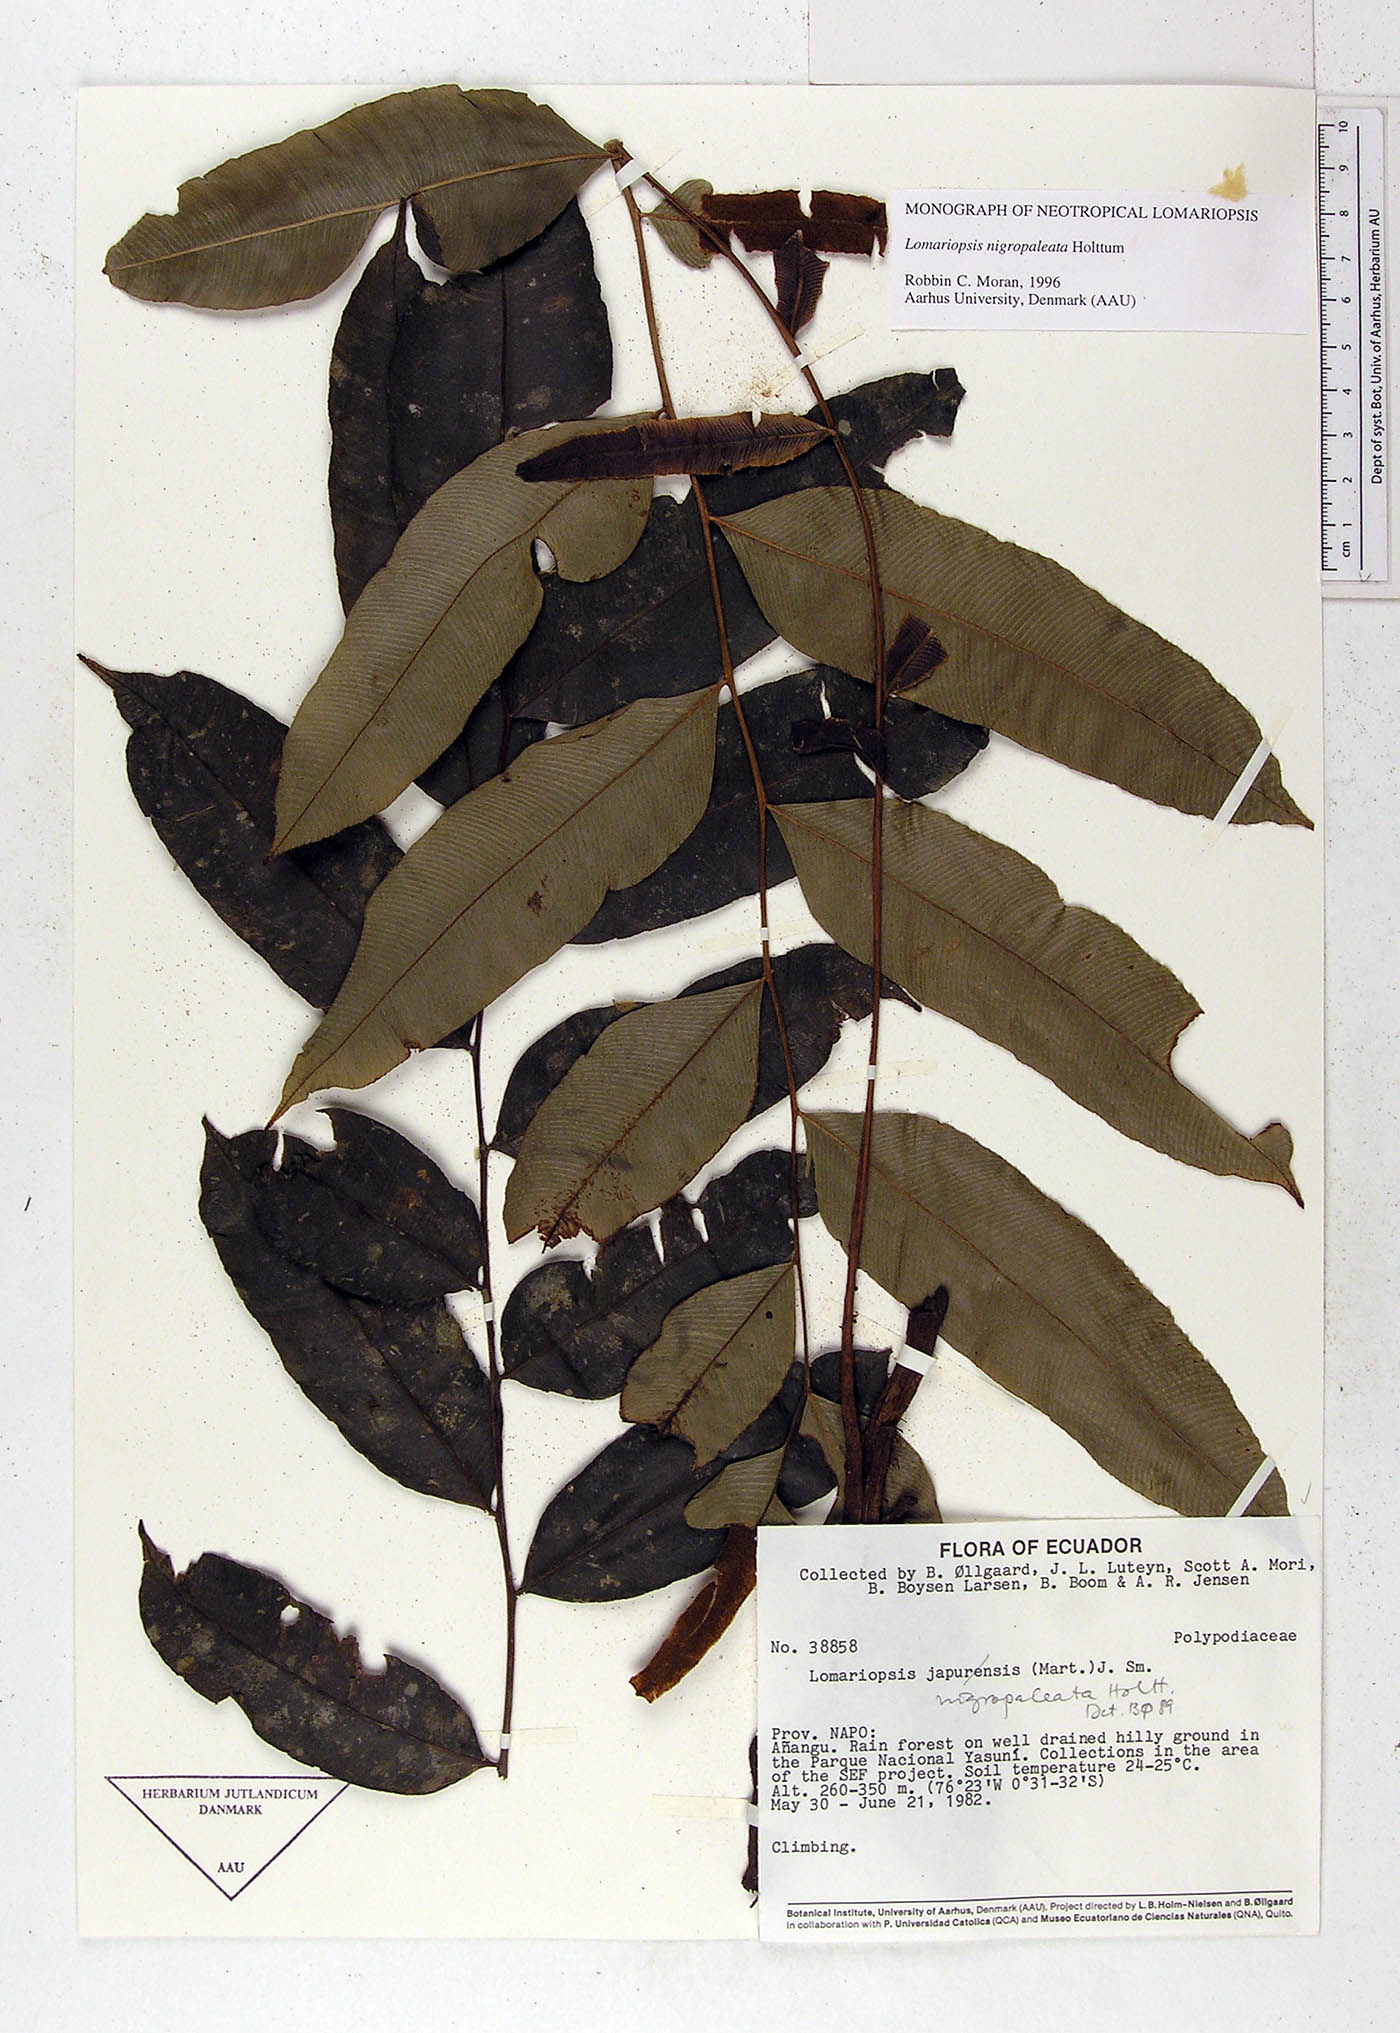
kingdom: Plantae
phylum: Tracheophyta
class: Polypodiopsida
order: Polypodiales
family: Lomariopsidaceae
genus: Lomariopsis
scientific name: Lomariopsis nigropaleata
